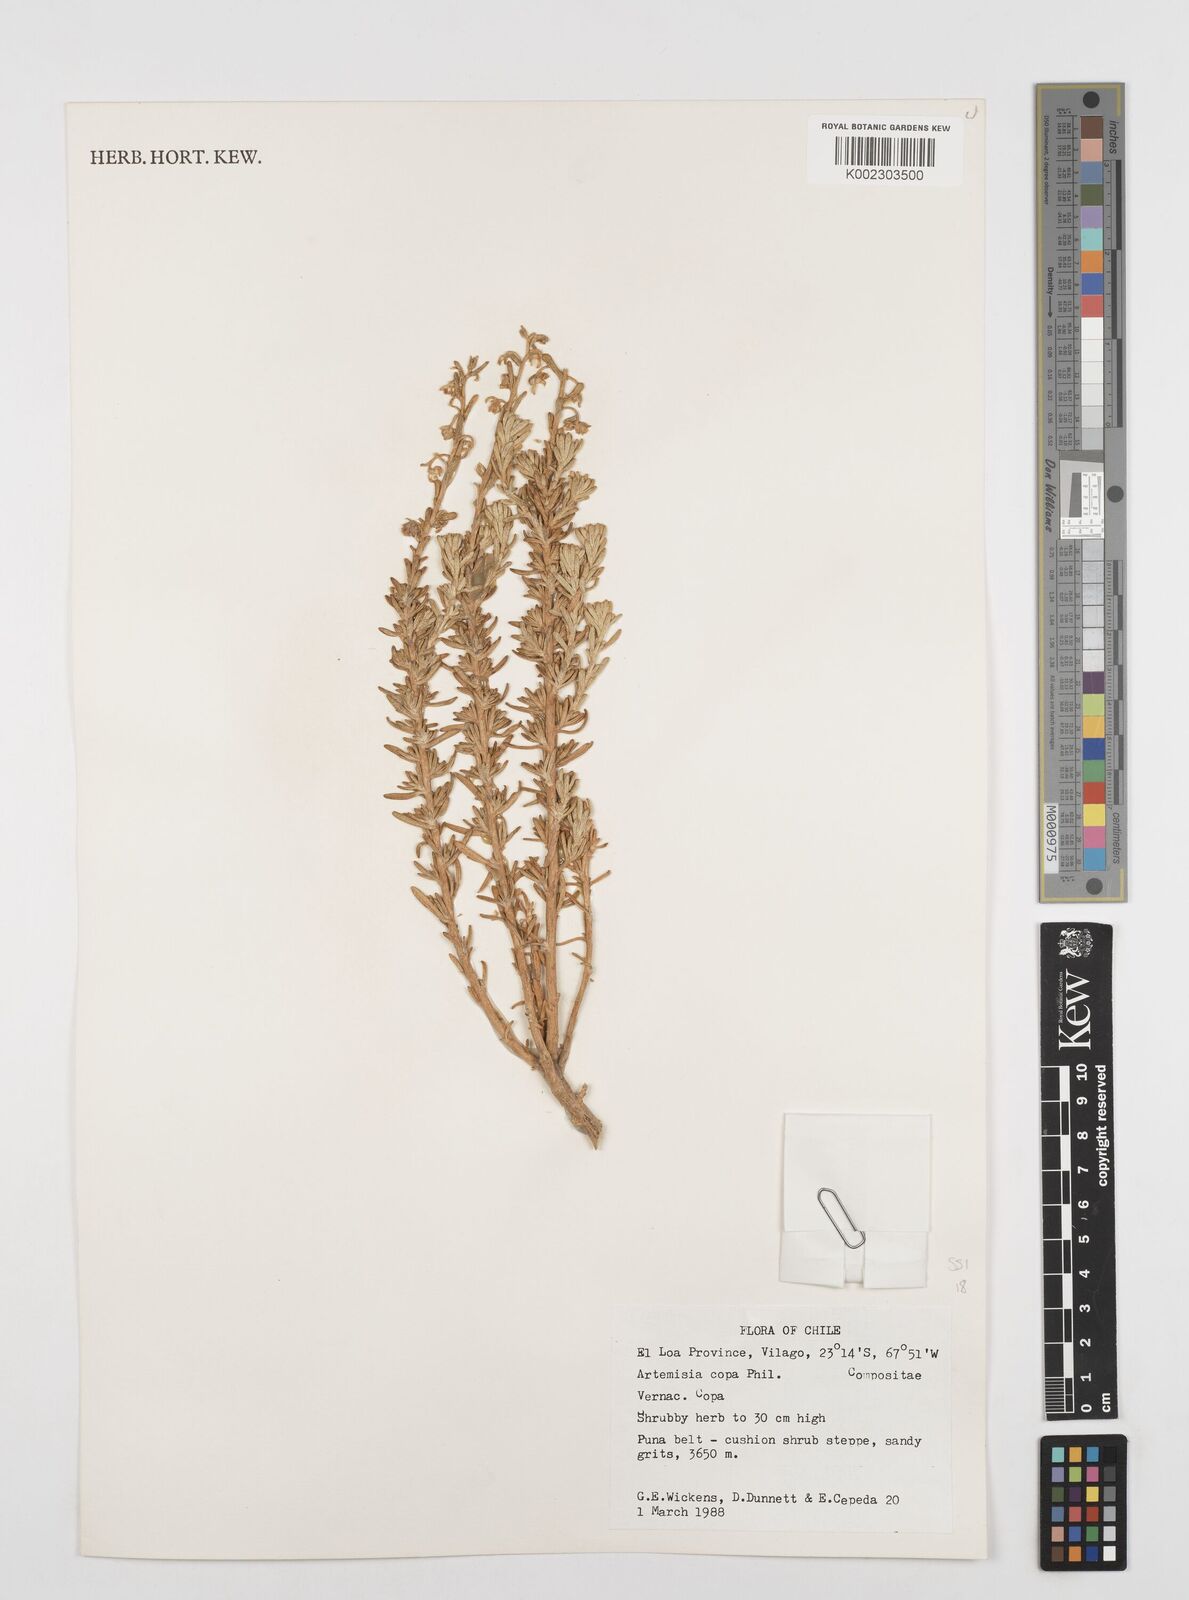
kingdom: Plantae
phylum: Tracheophyta
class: Magnoliopsida
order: Asterales
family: Asteraceae
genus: Artemisia
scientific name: Artemisia copa
